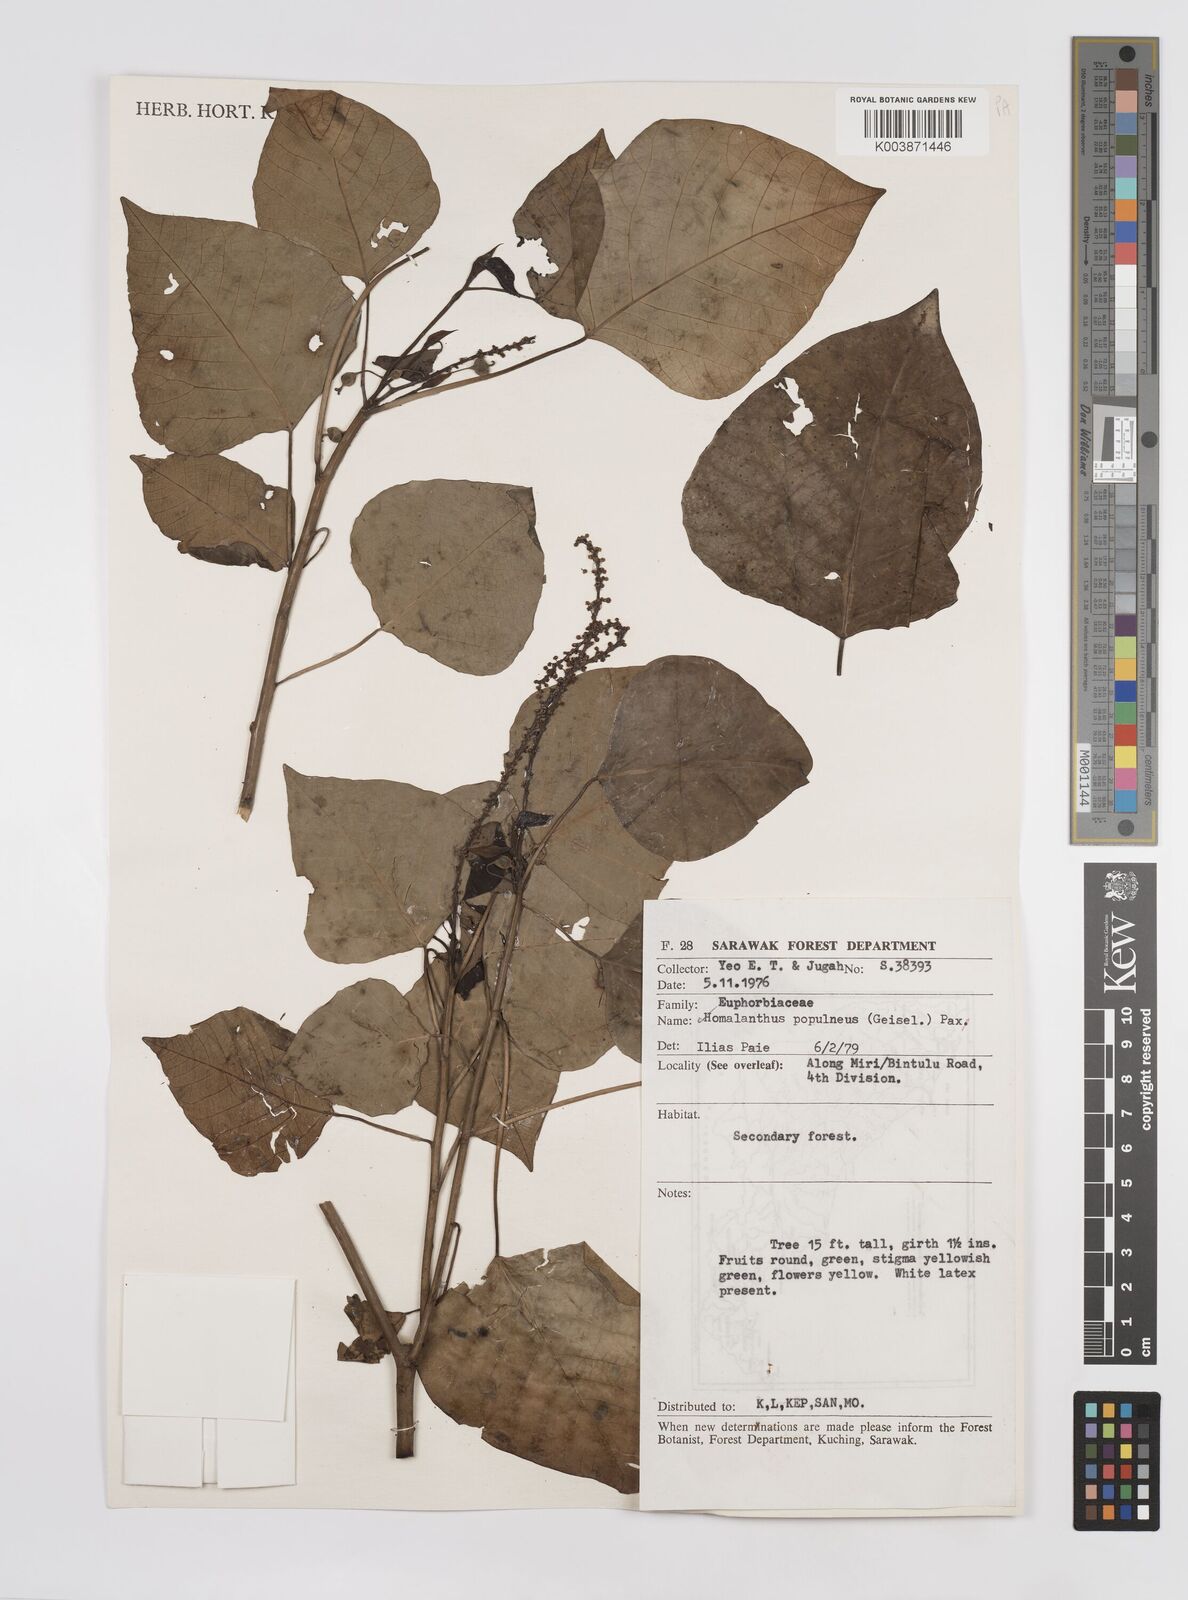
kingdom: Plantae
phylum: Tracheophyta
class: Magnoliopsida
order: Malpighiales
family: Euphorbiaceae
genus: Homalanthus
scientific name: Homalanthus populneus
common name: Spurge
